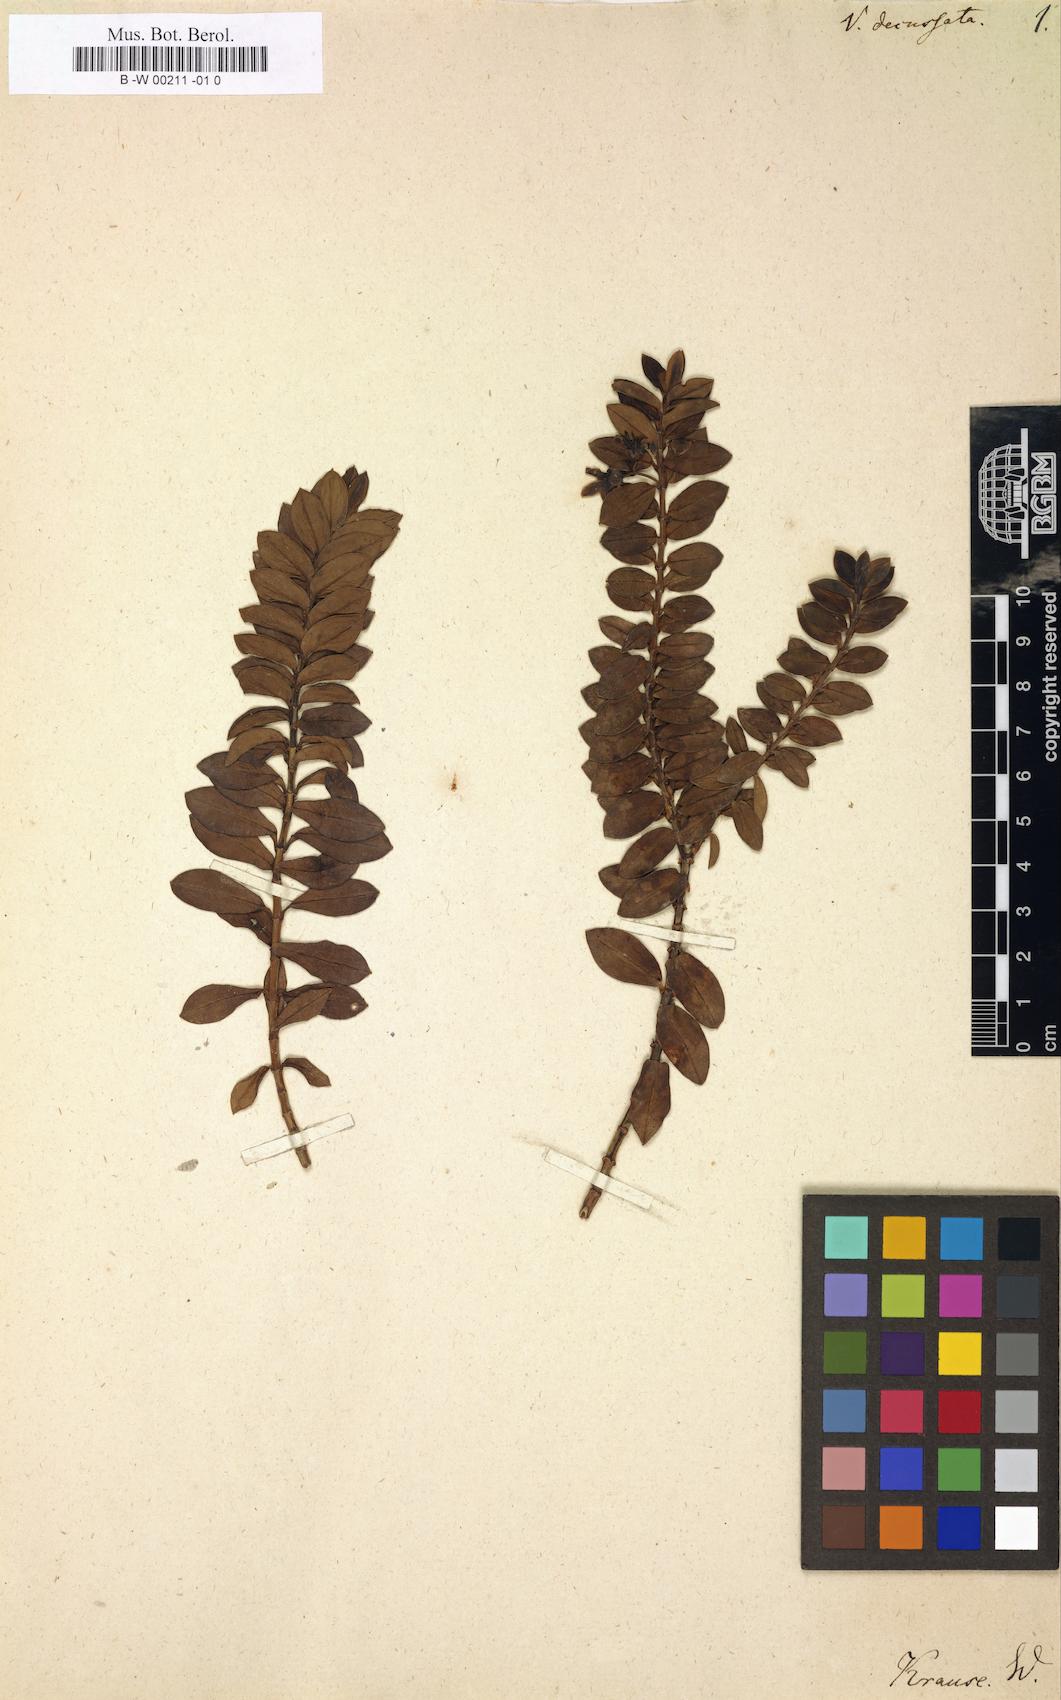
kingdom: Plantae
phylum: Tracheophyta
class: Magnoliopsida
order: Lamiales
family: Plantaginaceae
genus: Veronica
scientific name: Veronica elliptica
